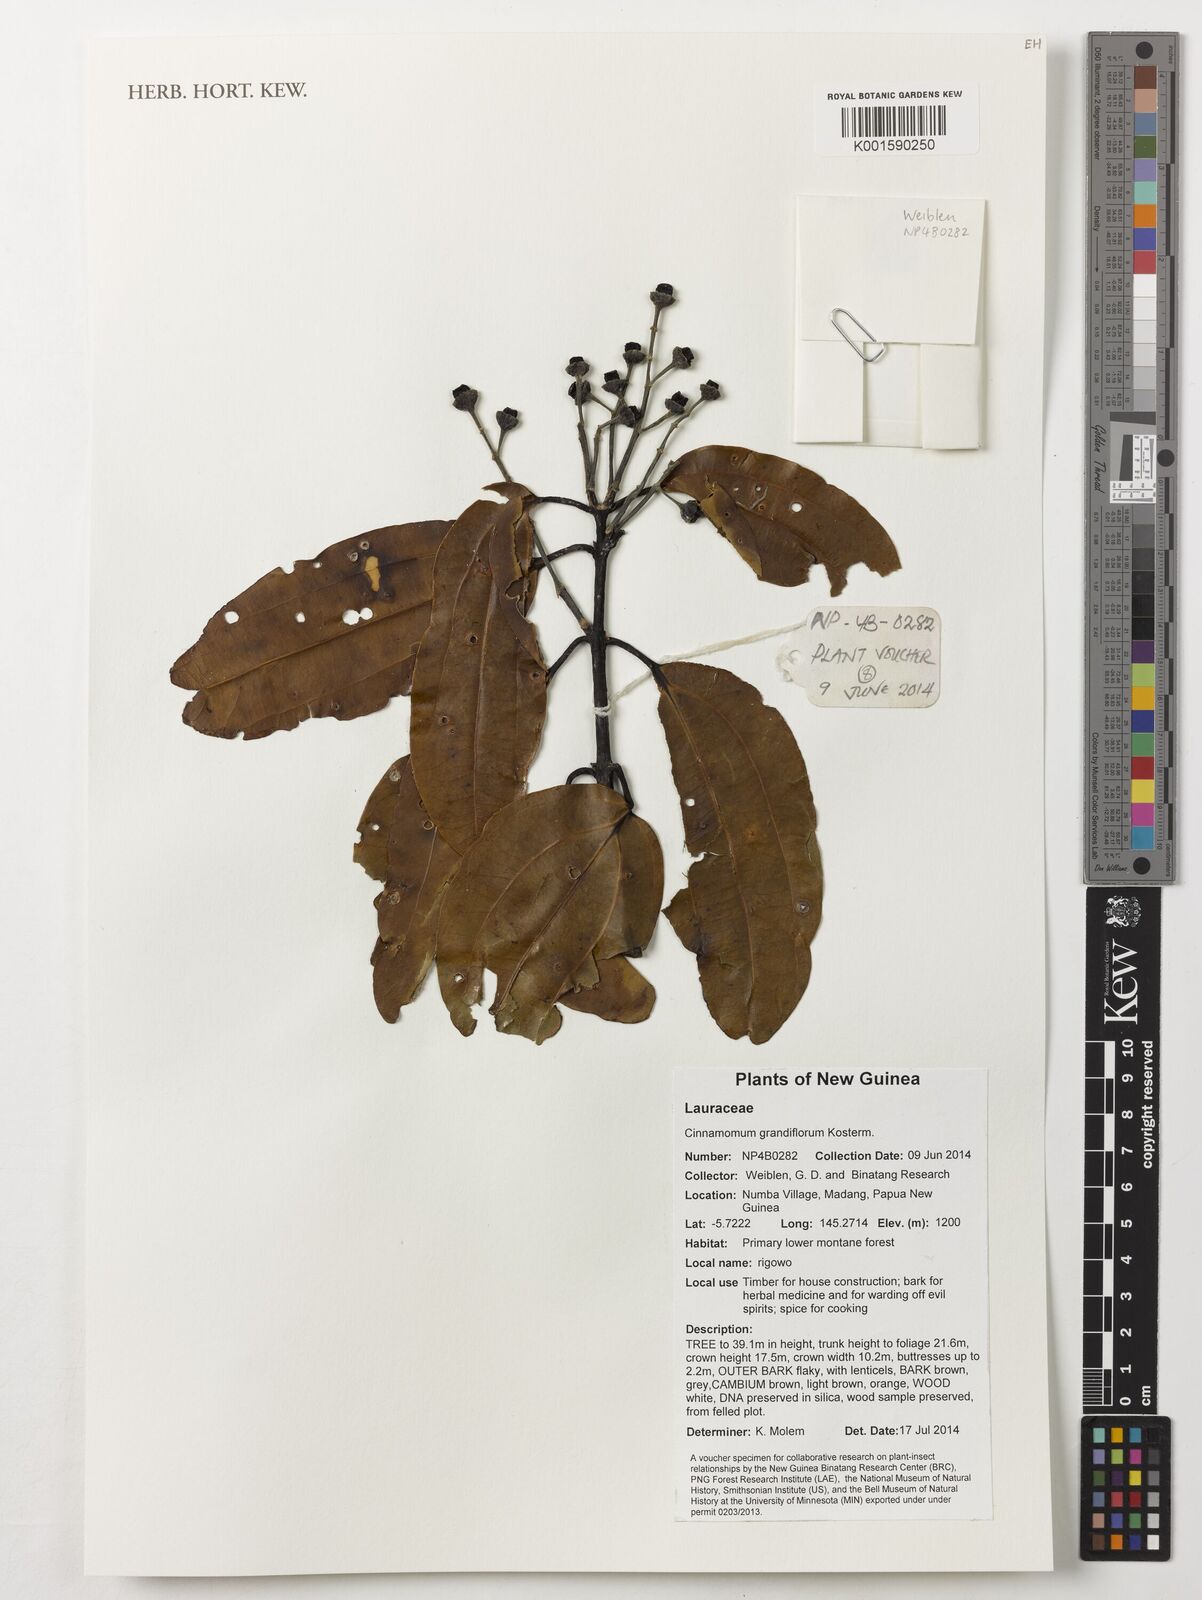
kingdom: Plantae
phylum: Tracheophyta
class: Magnoliopsida
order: Laurales
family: Lauraceae
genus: Cinnamomum
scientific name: Cinnamomum grandiflorum
